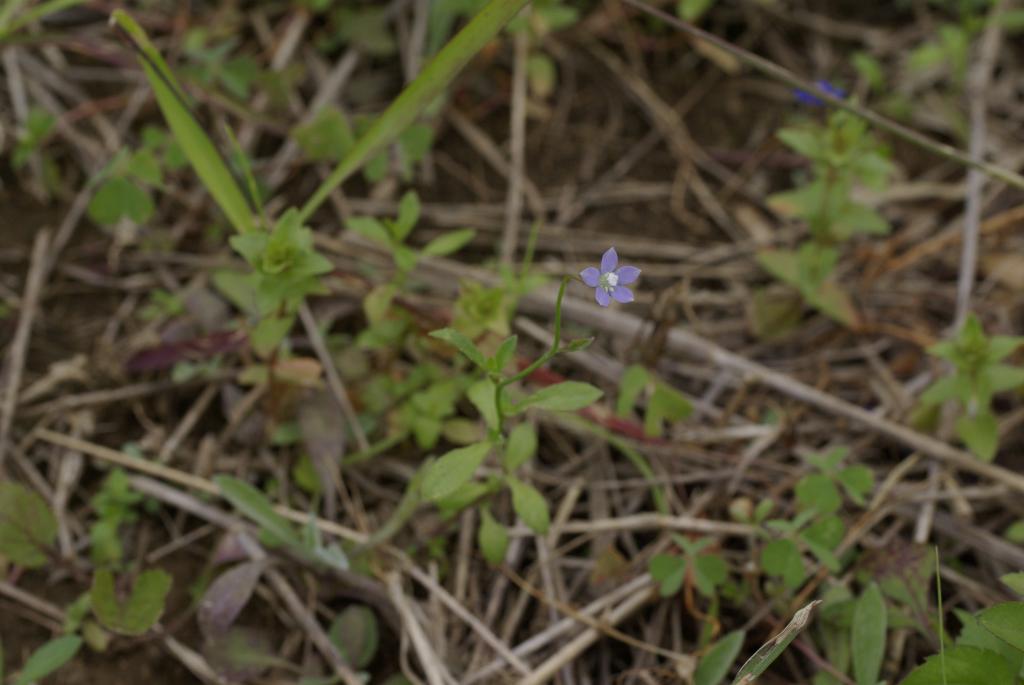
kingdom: Plantae
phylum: Tracheophyta
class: Magnoliopsida
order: Asterales
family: Campanulaceae
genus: Wahlenbergia
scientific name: Wahlenbergia marginata
